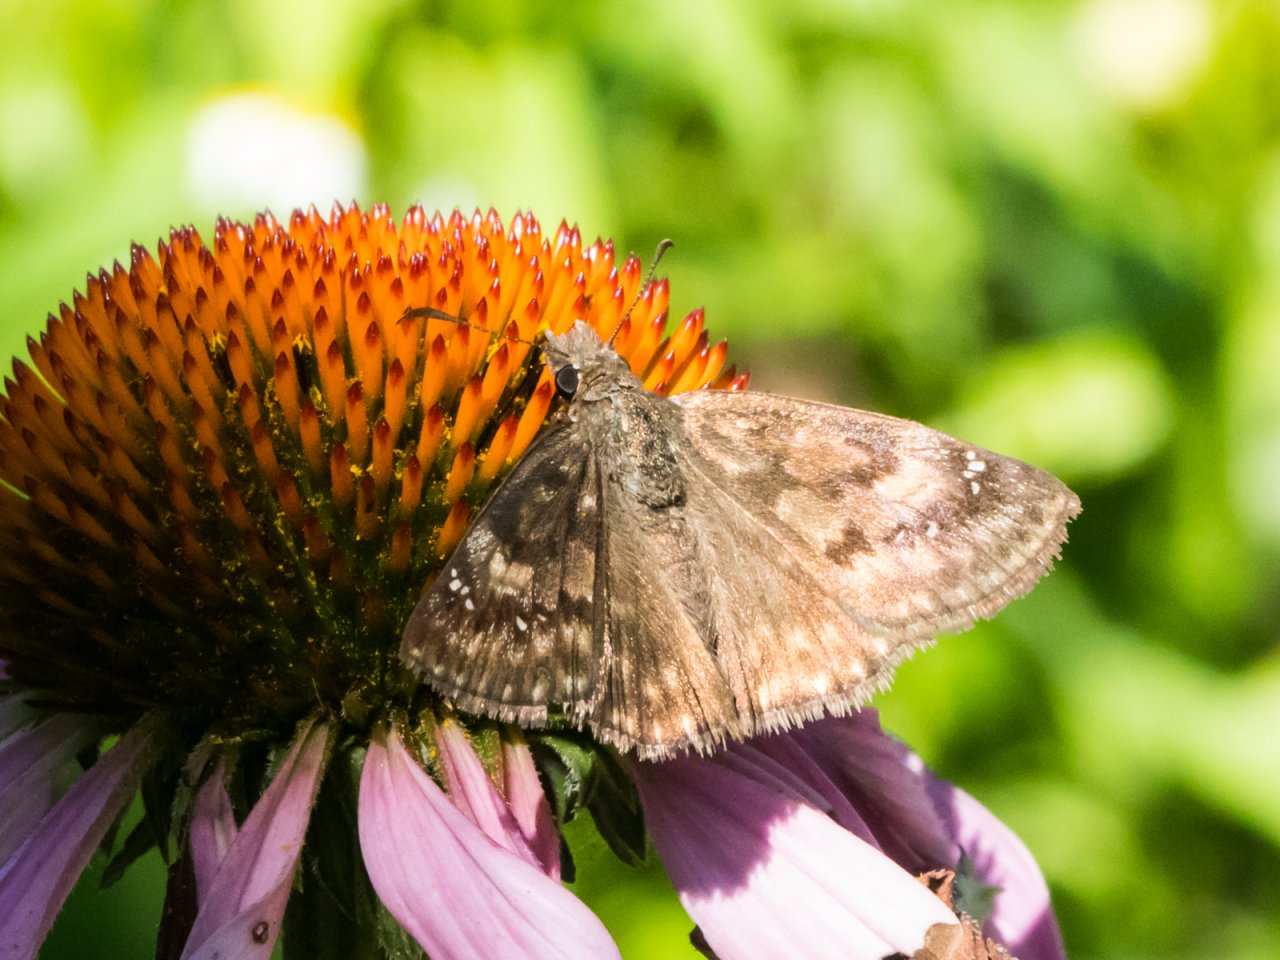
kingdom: Animalia
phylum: Arthropoda
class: Insecta
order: Lepidoptera
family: Hesperiidae
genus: Gesta
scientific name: Gesta
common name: Wild Indigo Duskywing
